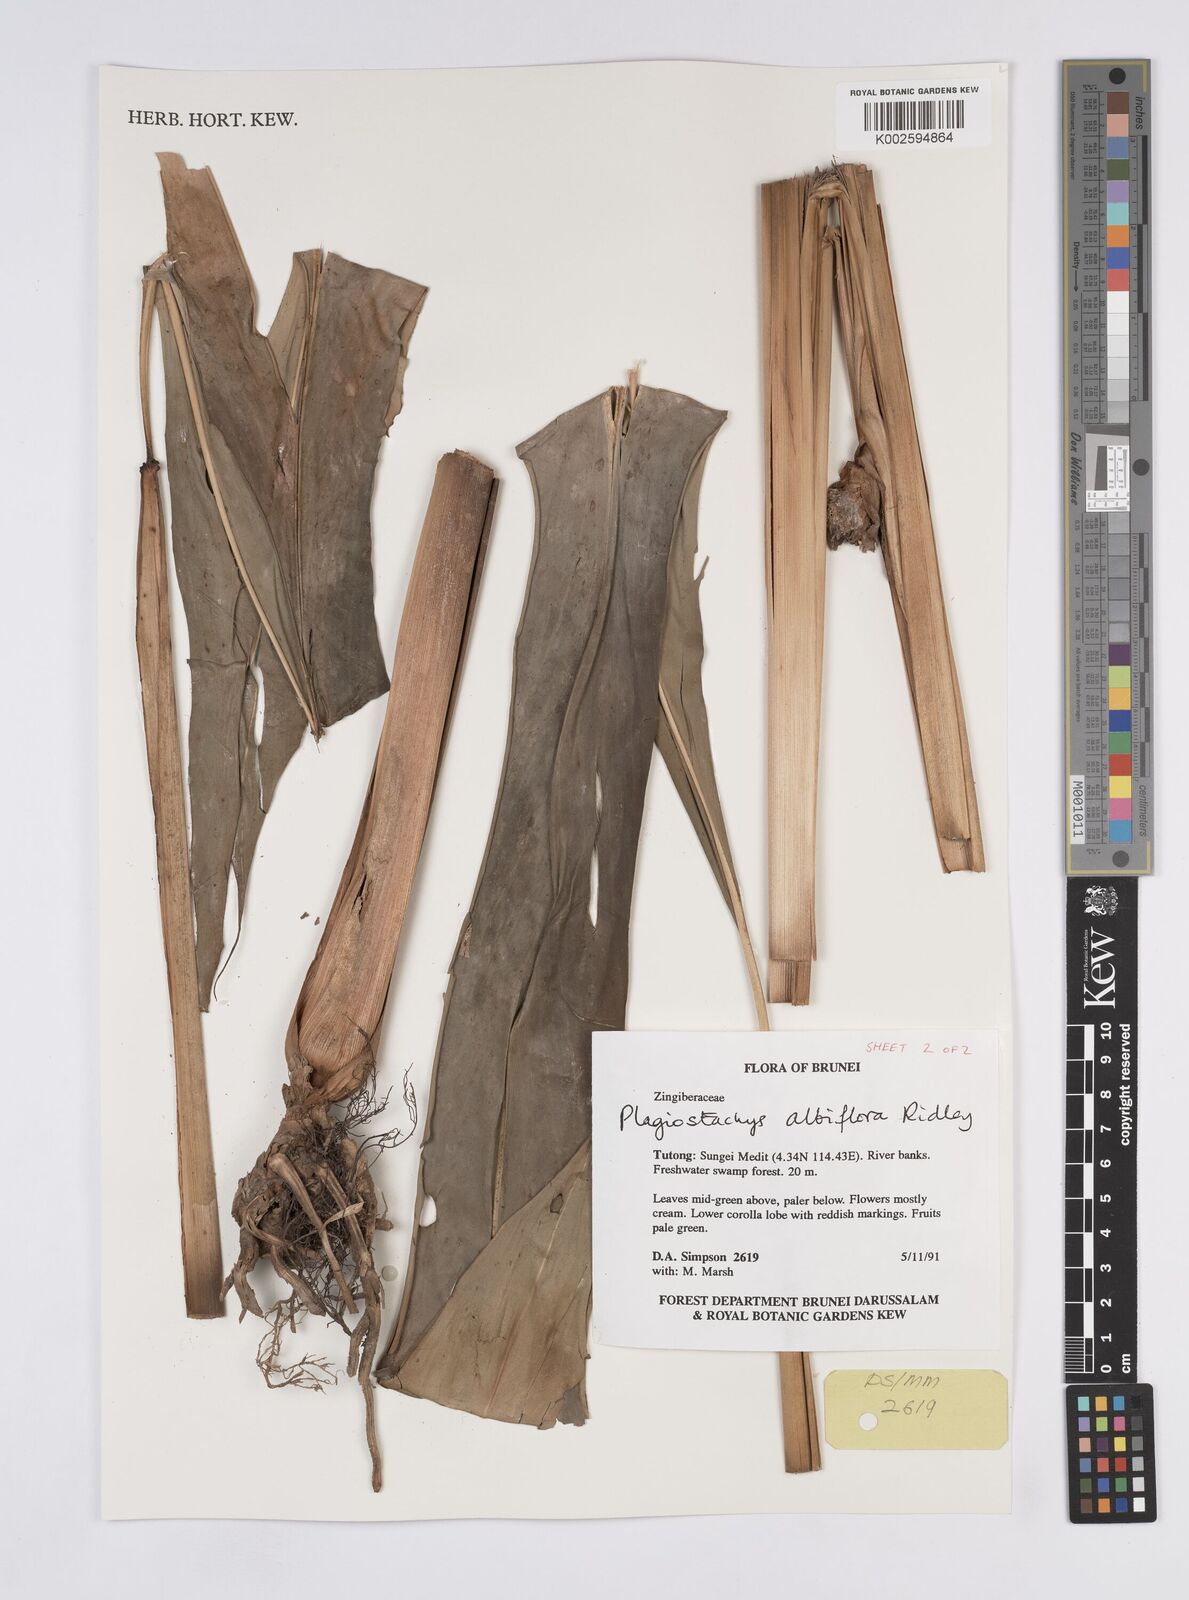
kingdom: Plantae
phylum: Tracheophyta
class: Liliopsida
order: Zingiberales
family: Zingiberaceae
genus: Plagiostachys
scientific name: Plagiostachys albiflora
